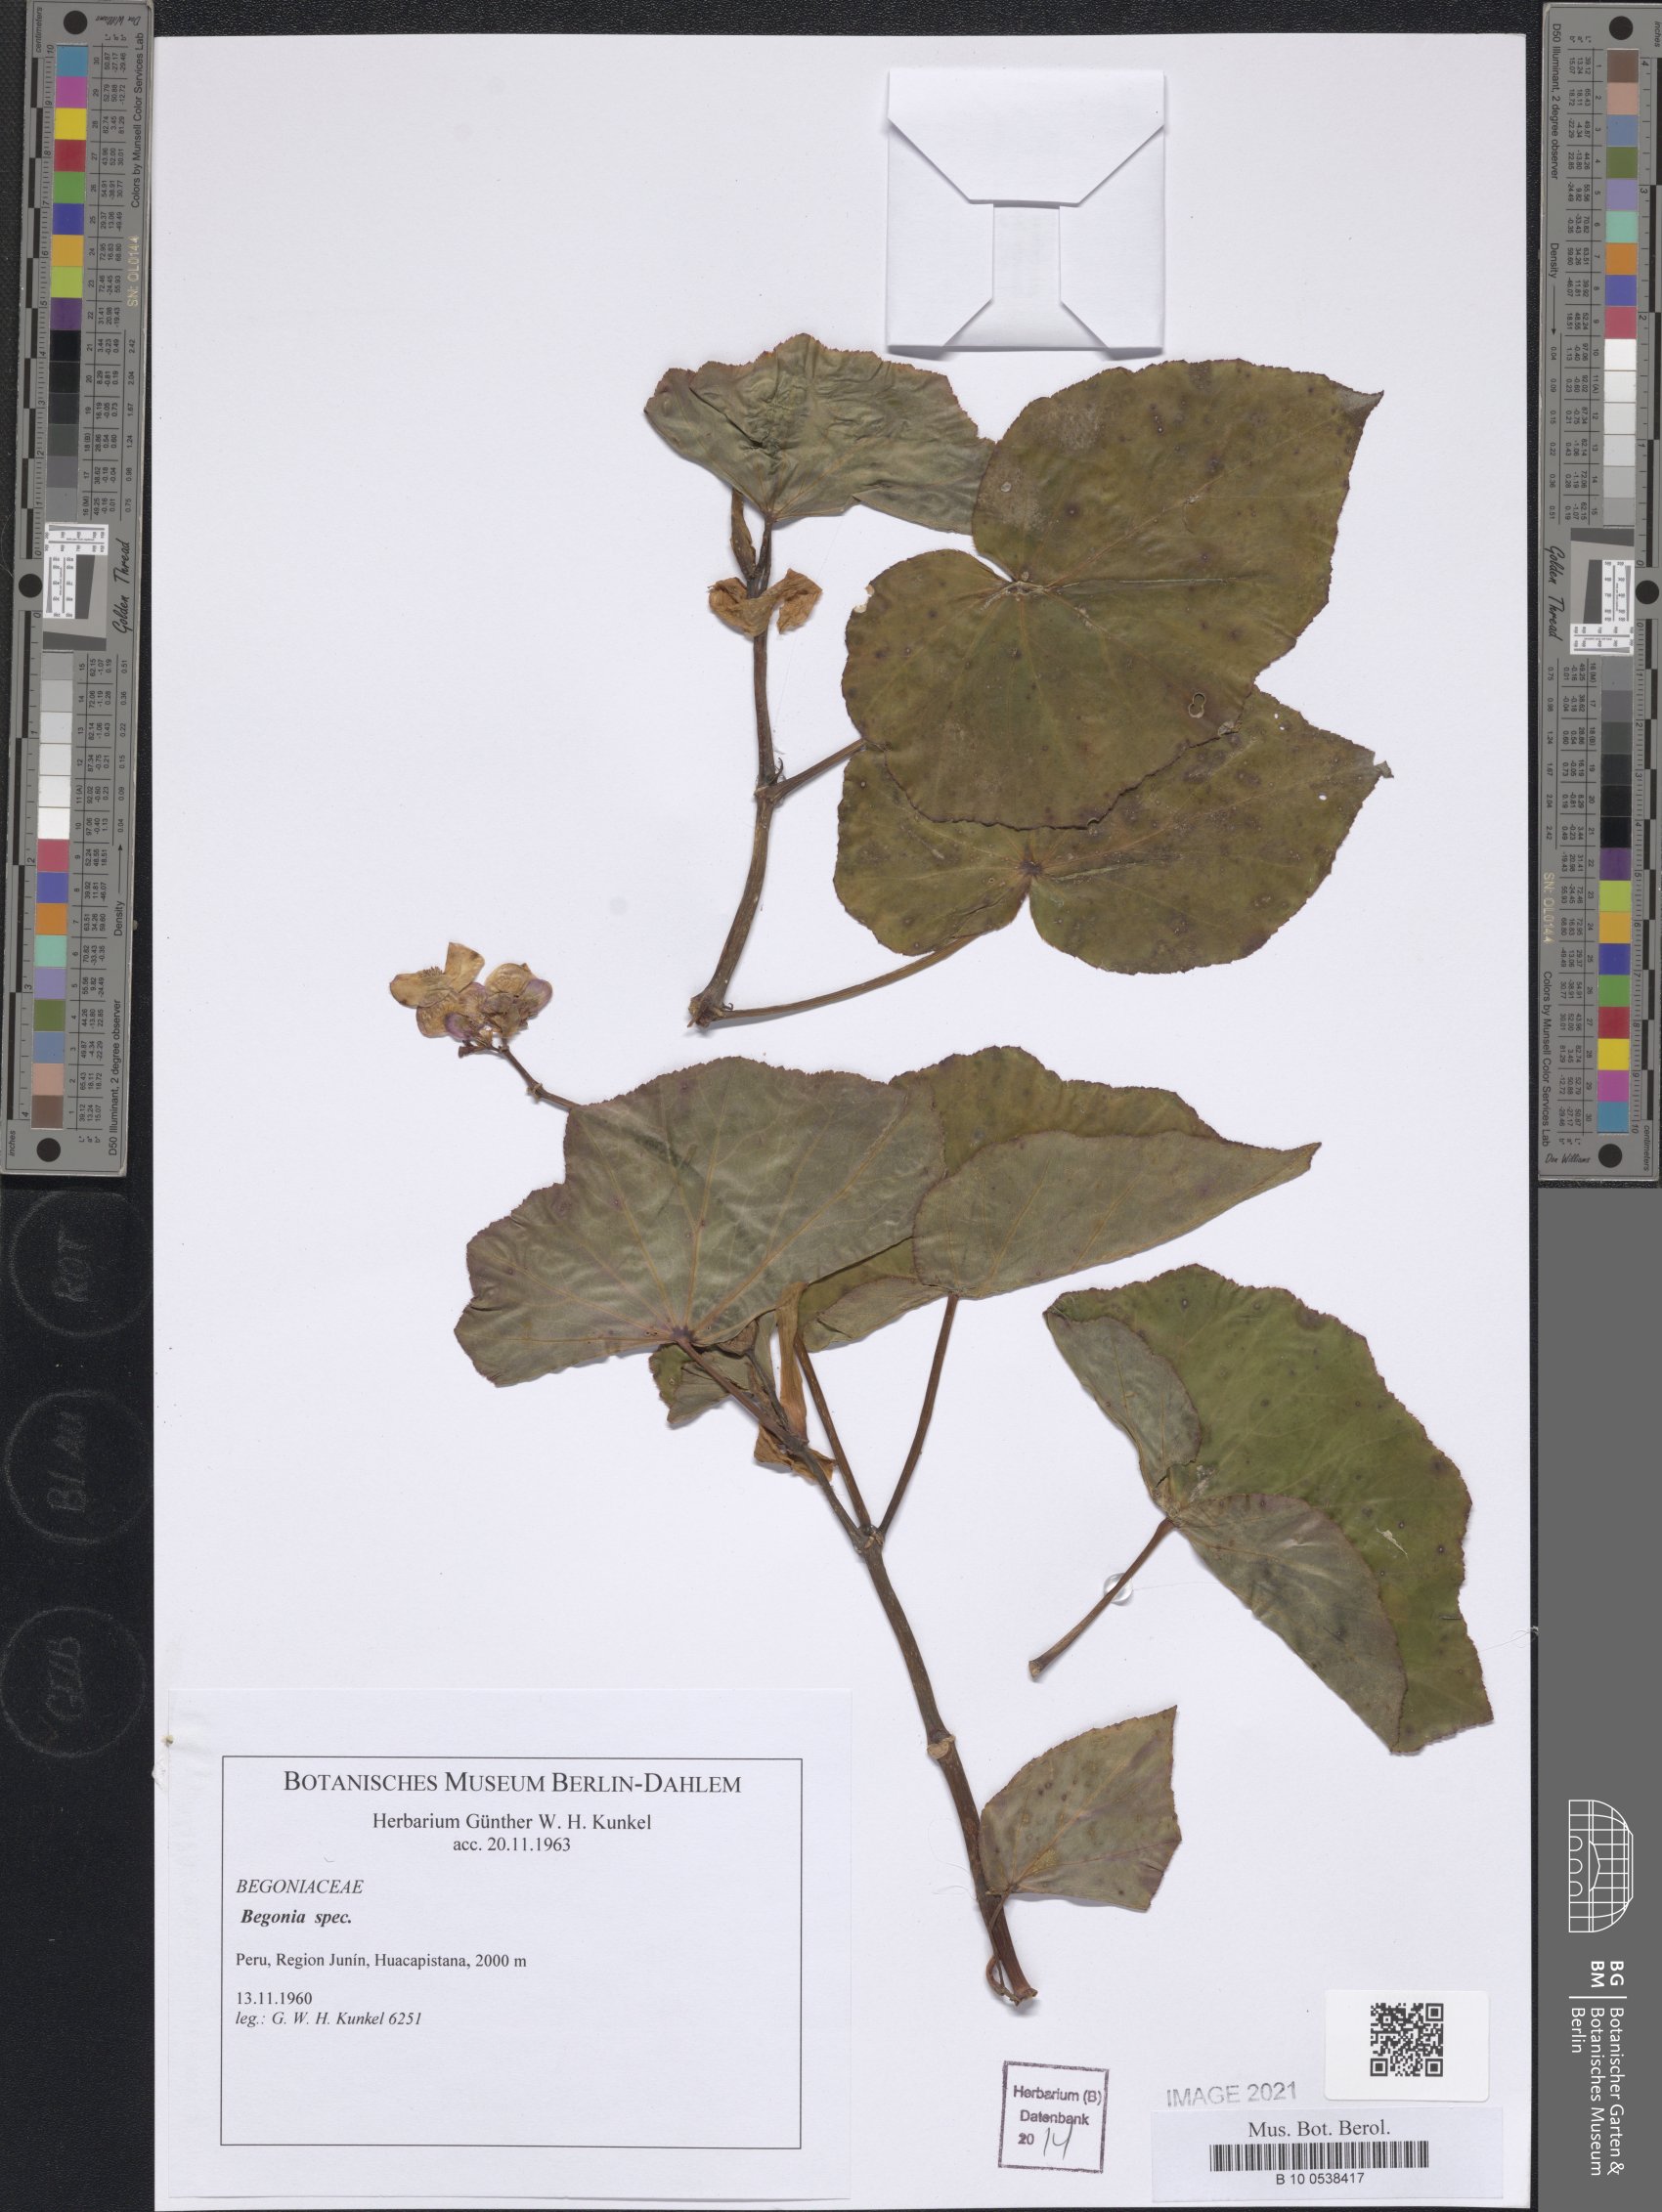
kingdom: Plantae
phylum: Tracheophyta
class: Magnoliopsida
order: Cucurbitales
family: Begoniaceae
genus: Begonia
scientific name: Begonia
